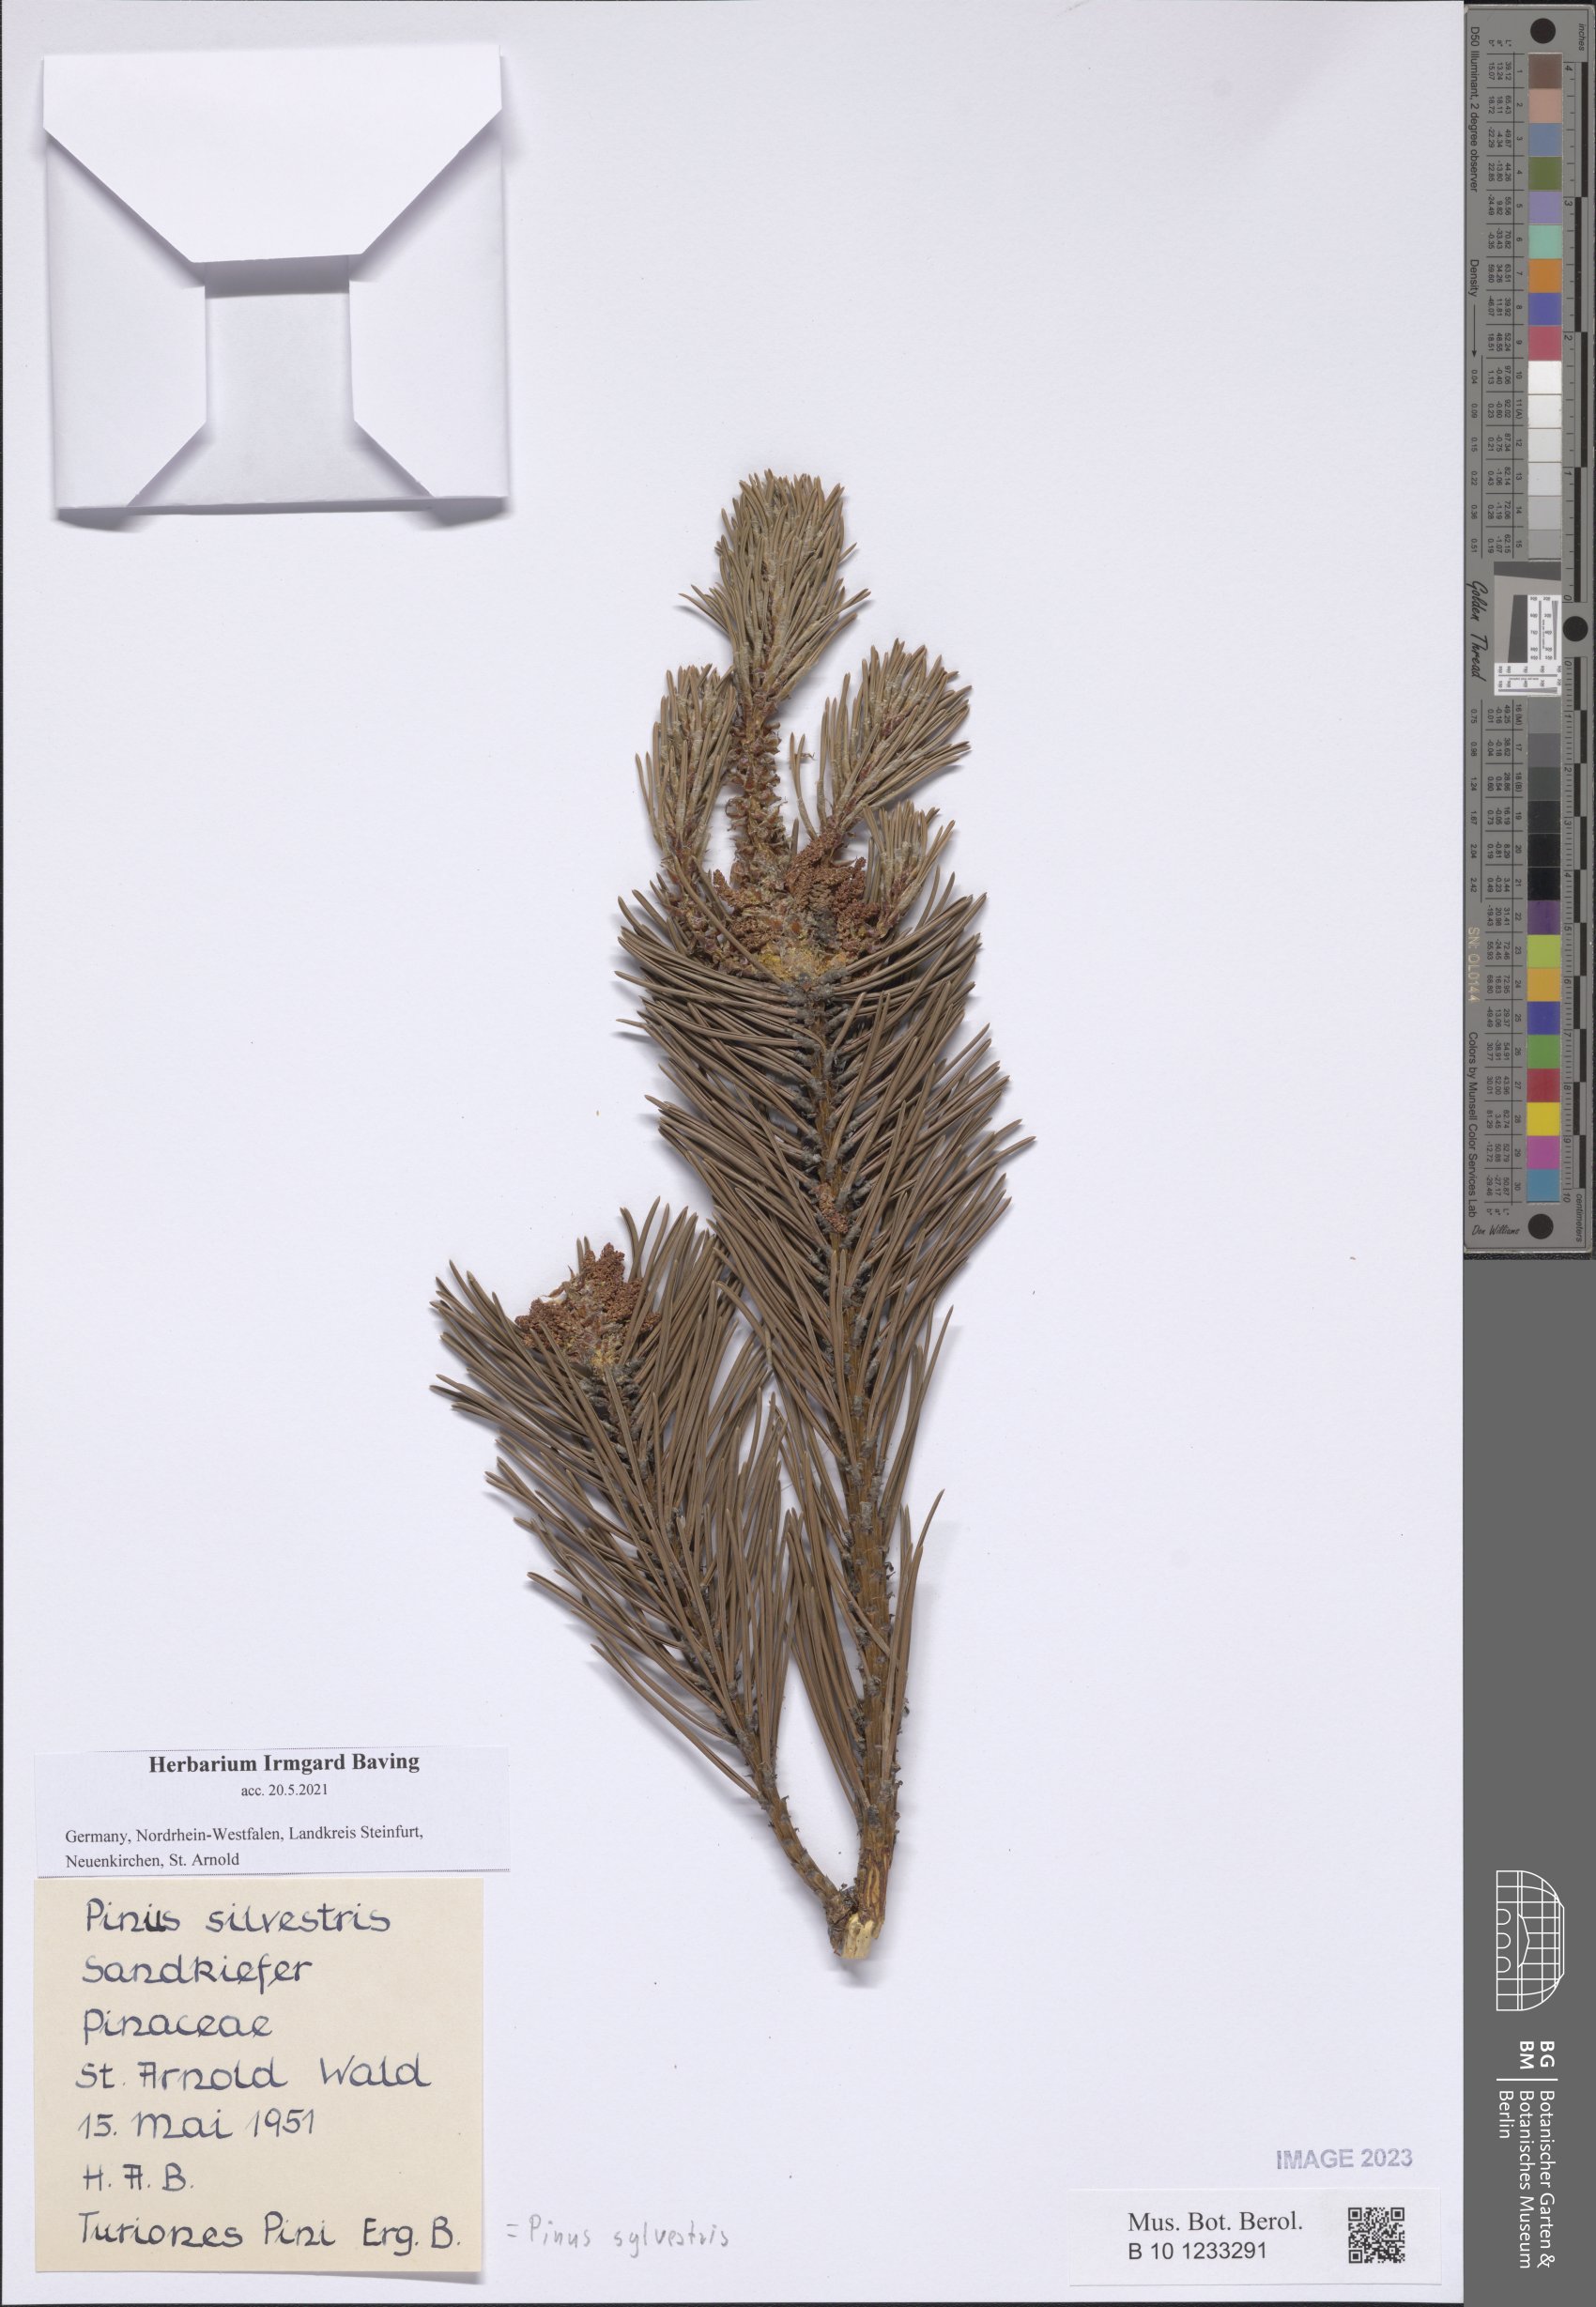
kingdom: Plantae
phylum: Tracheophyta
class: Pinopsida
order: Pinales
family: Pinaceae
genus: Pinus
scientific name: Pinus sylvestris
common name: Scots pine
